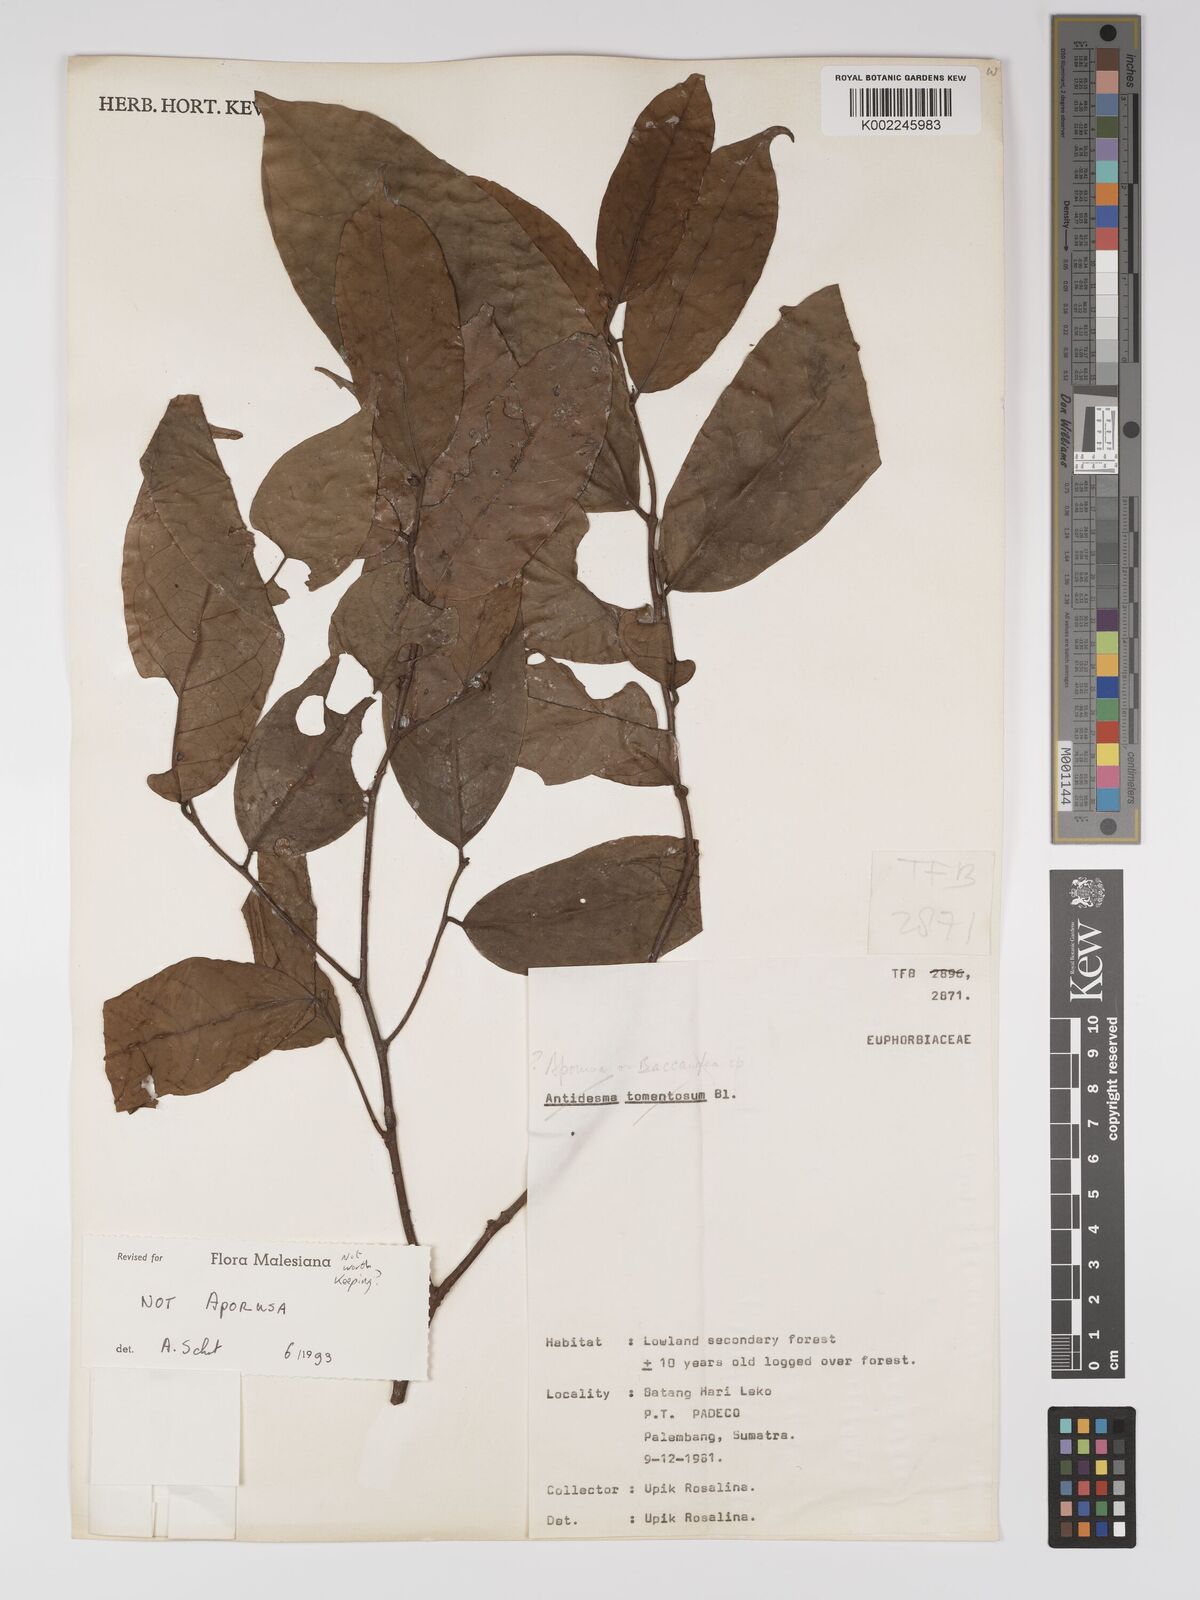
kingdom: Plantae
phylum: Tracheophyta
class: Magnoliopsida
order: Malpighiales
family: Euphorbiaceae
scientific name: Euphorbiaceae
